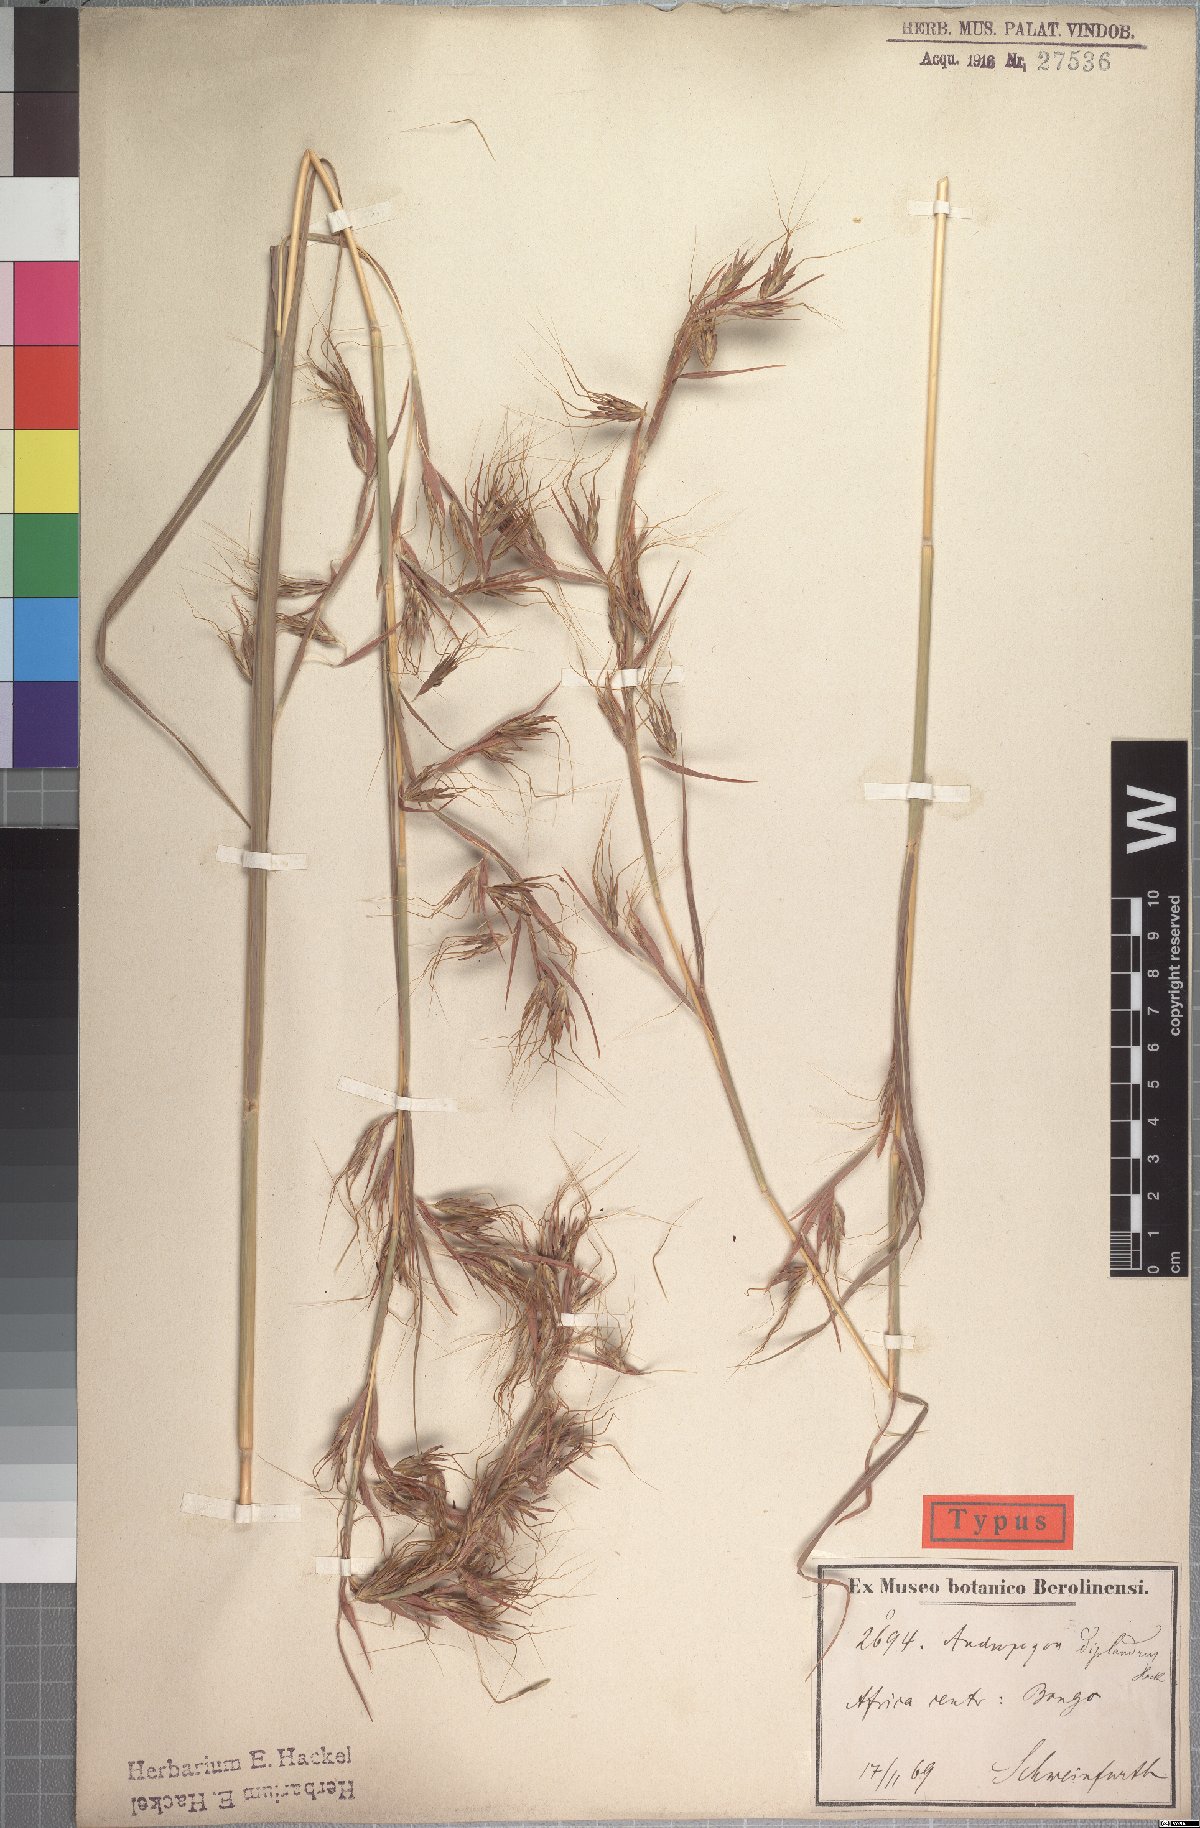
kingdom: Plantae
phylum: Tracheophyta
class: Liliopsida
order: Poales
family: Poaceae
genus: Hyparrhenia
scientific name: Hyparrhenia diplandra
